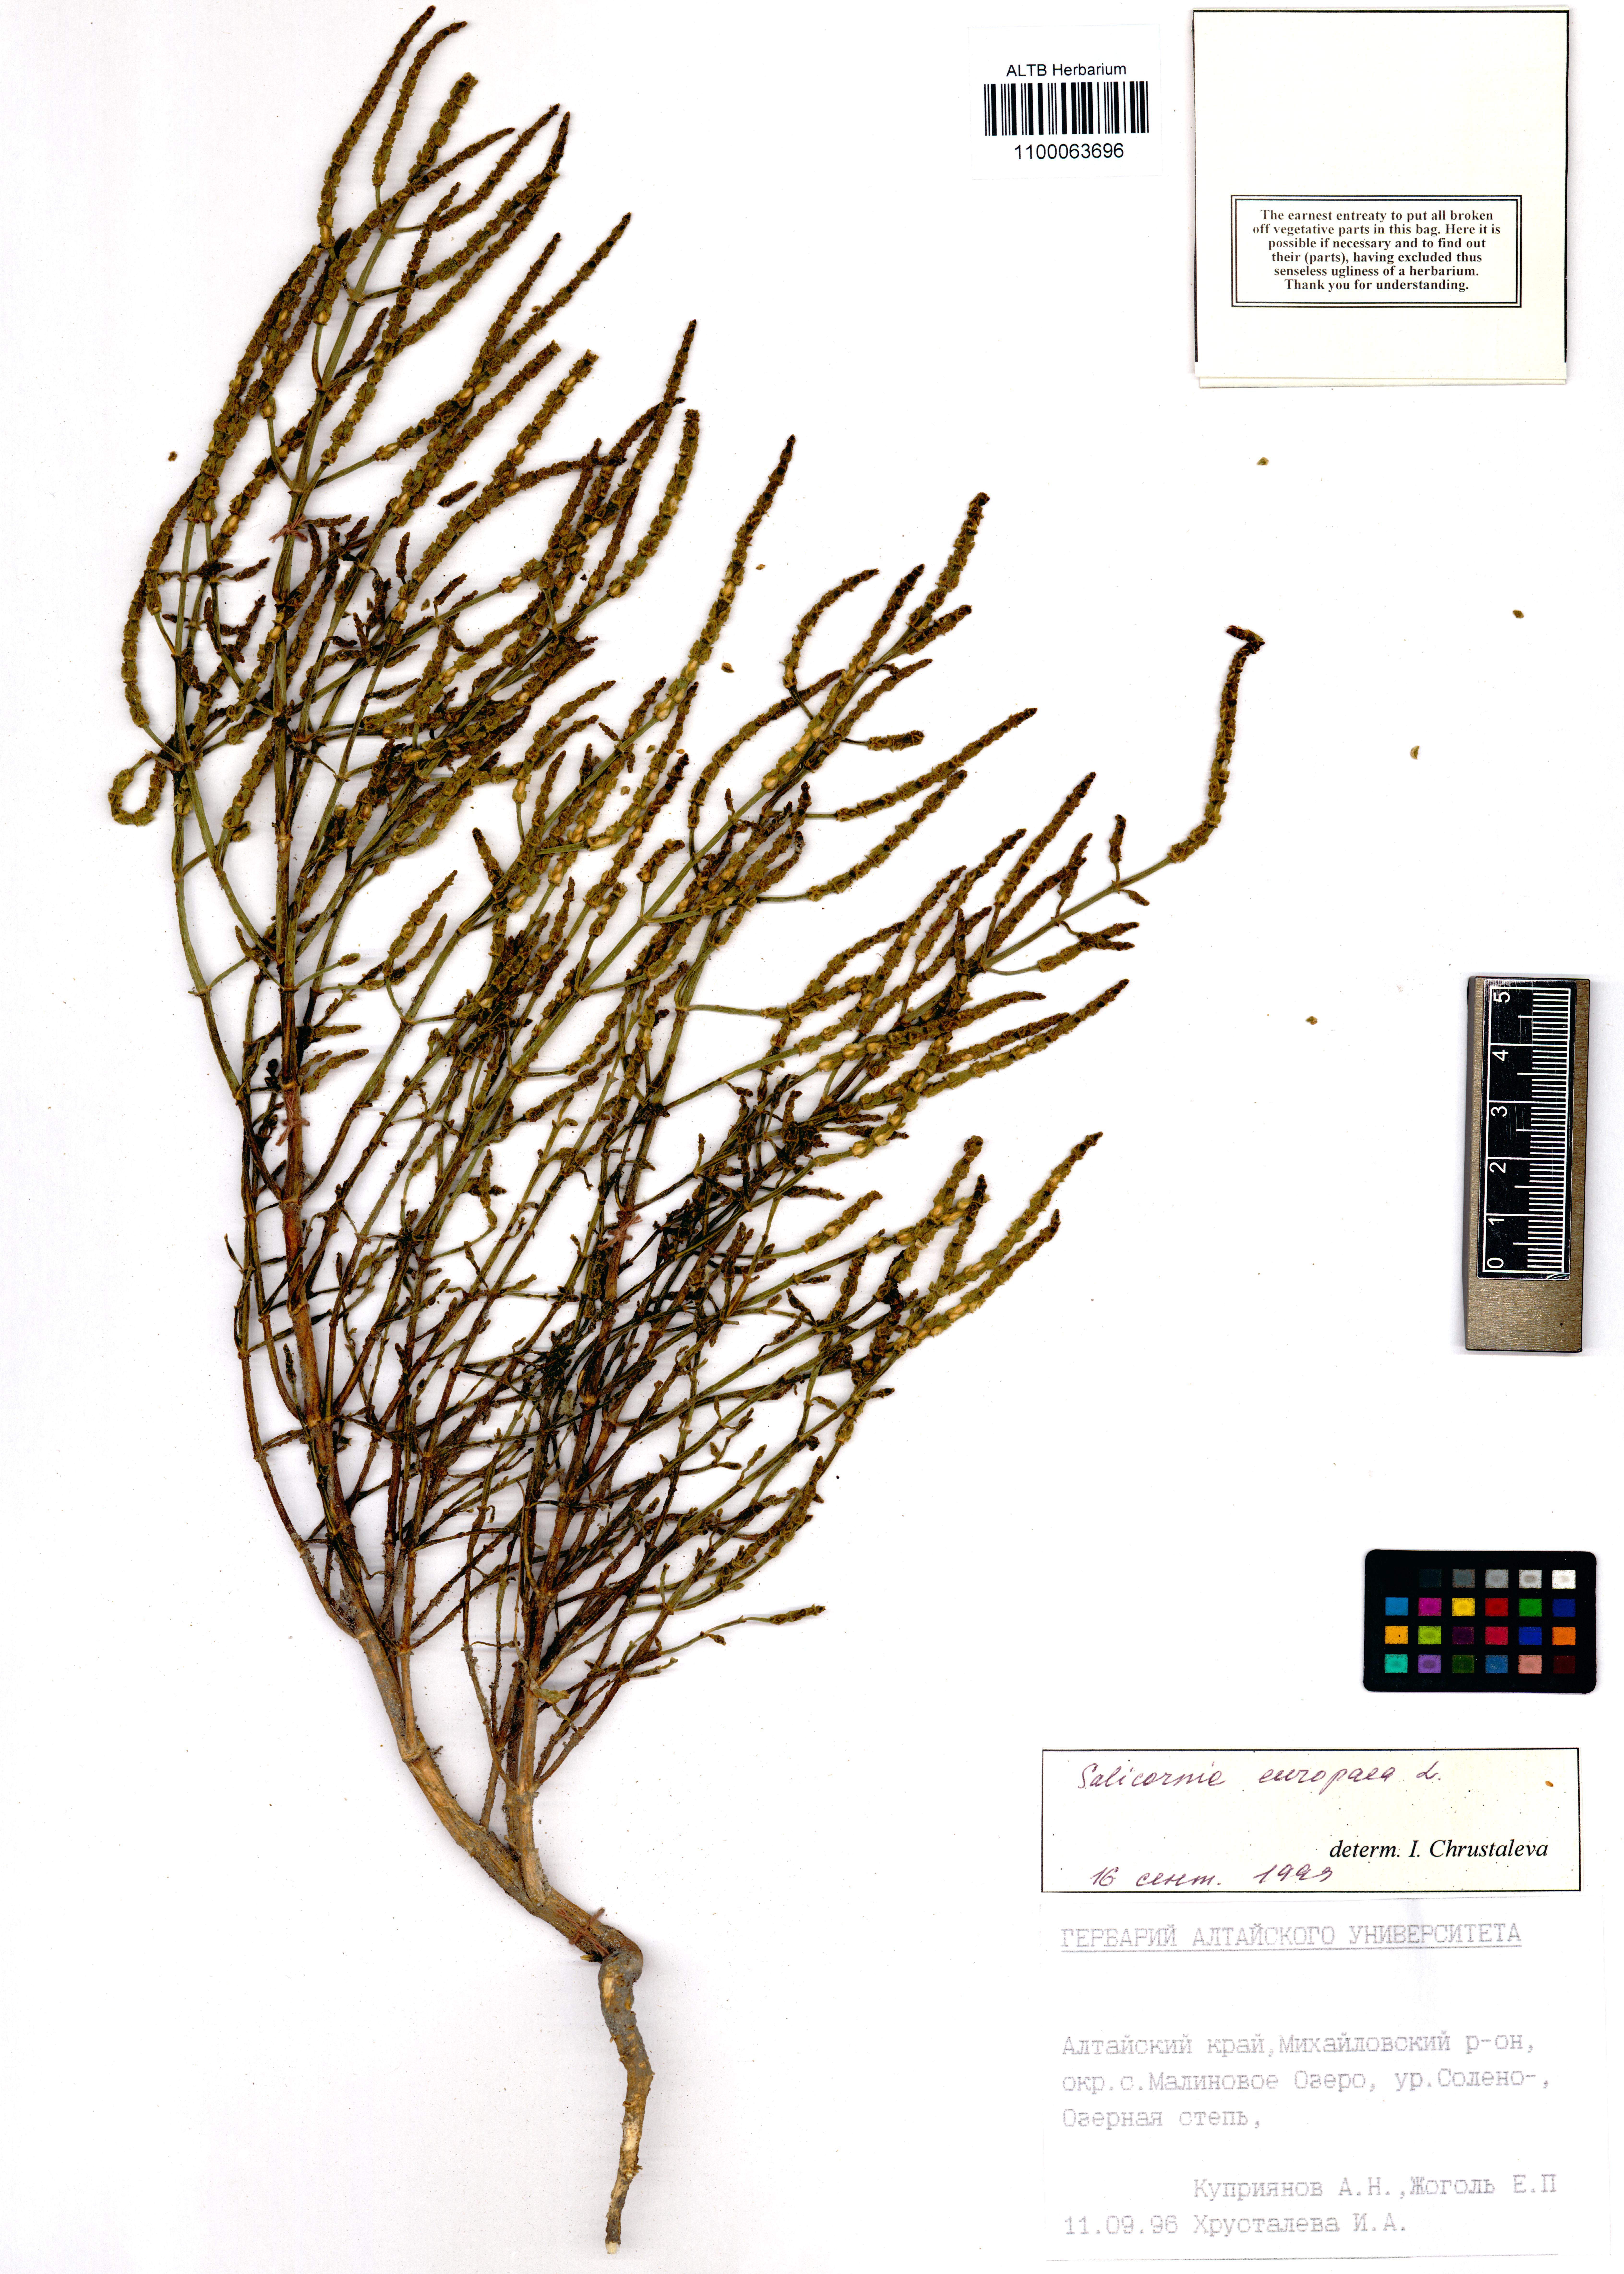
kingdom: Plantae
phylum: Tracheophyta
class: Magnoliopsida
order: Caryophyllales
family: Amaranthaceae
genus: Salicornia
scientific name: Salicornia europaea
